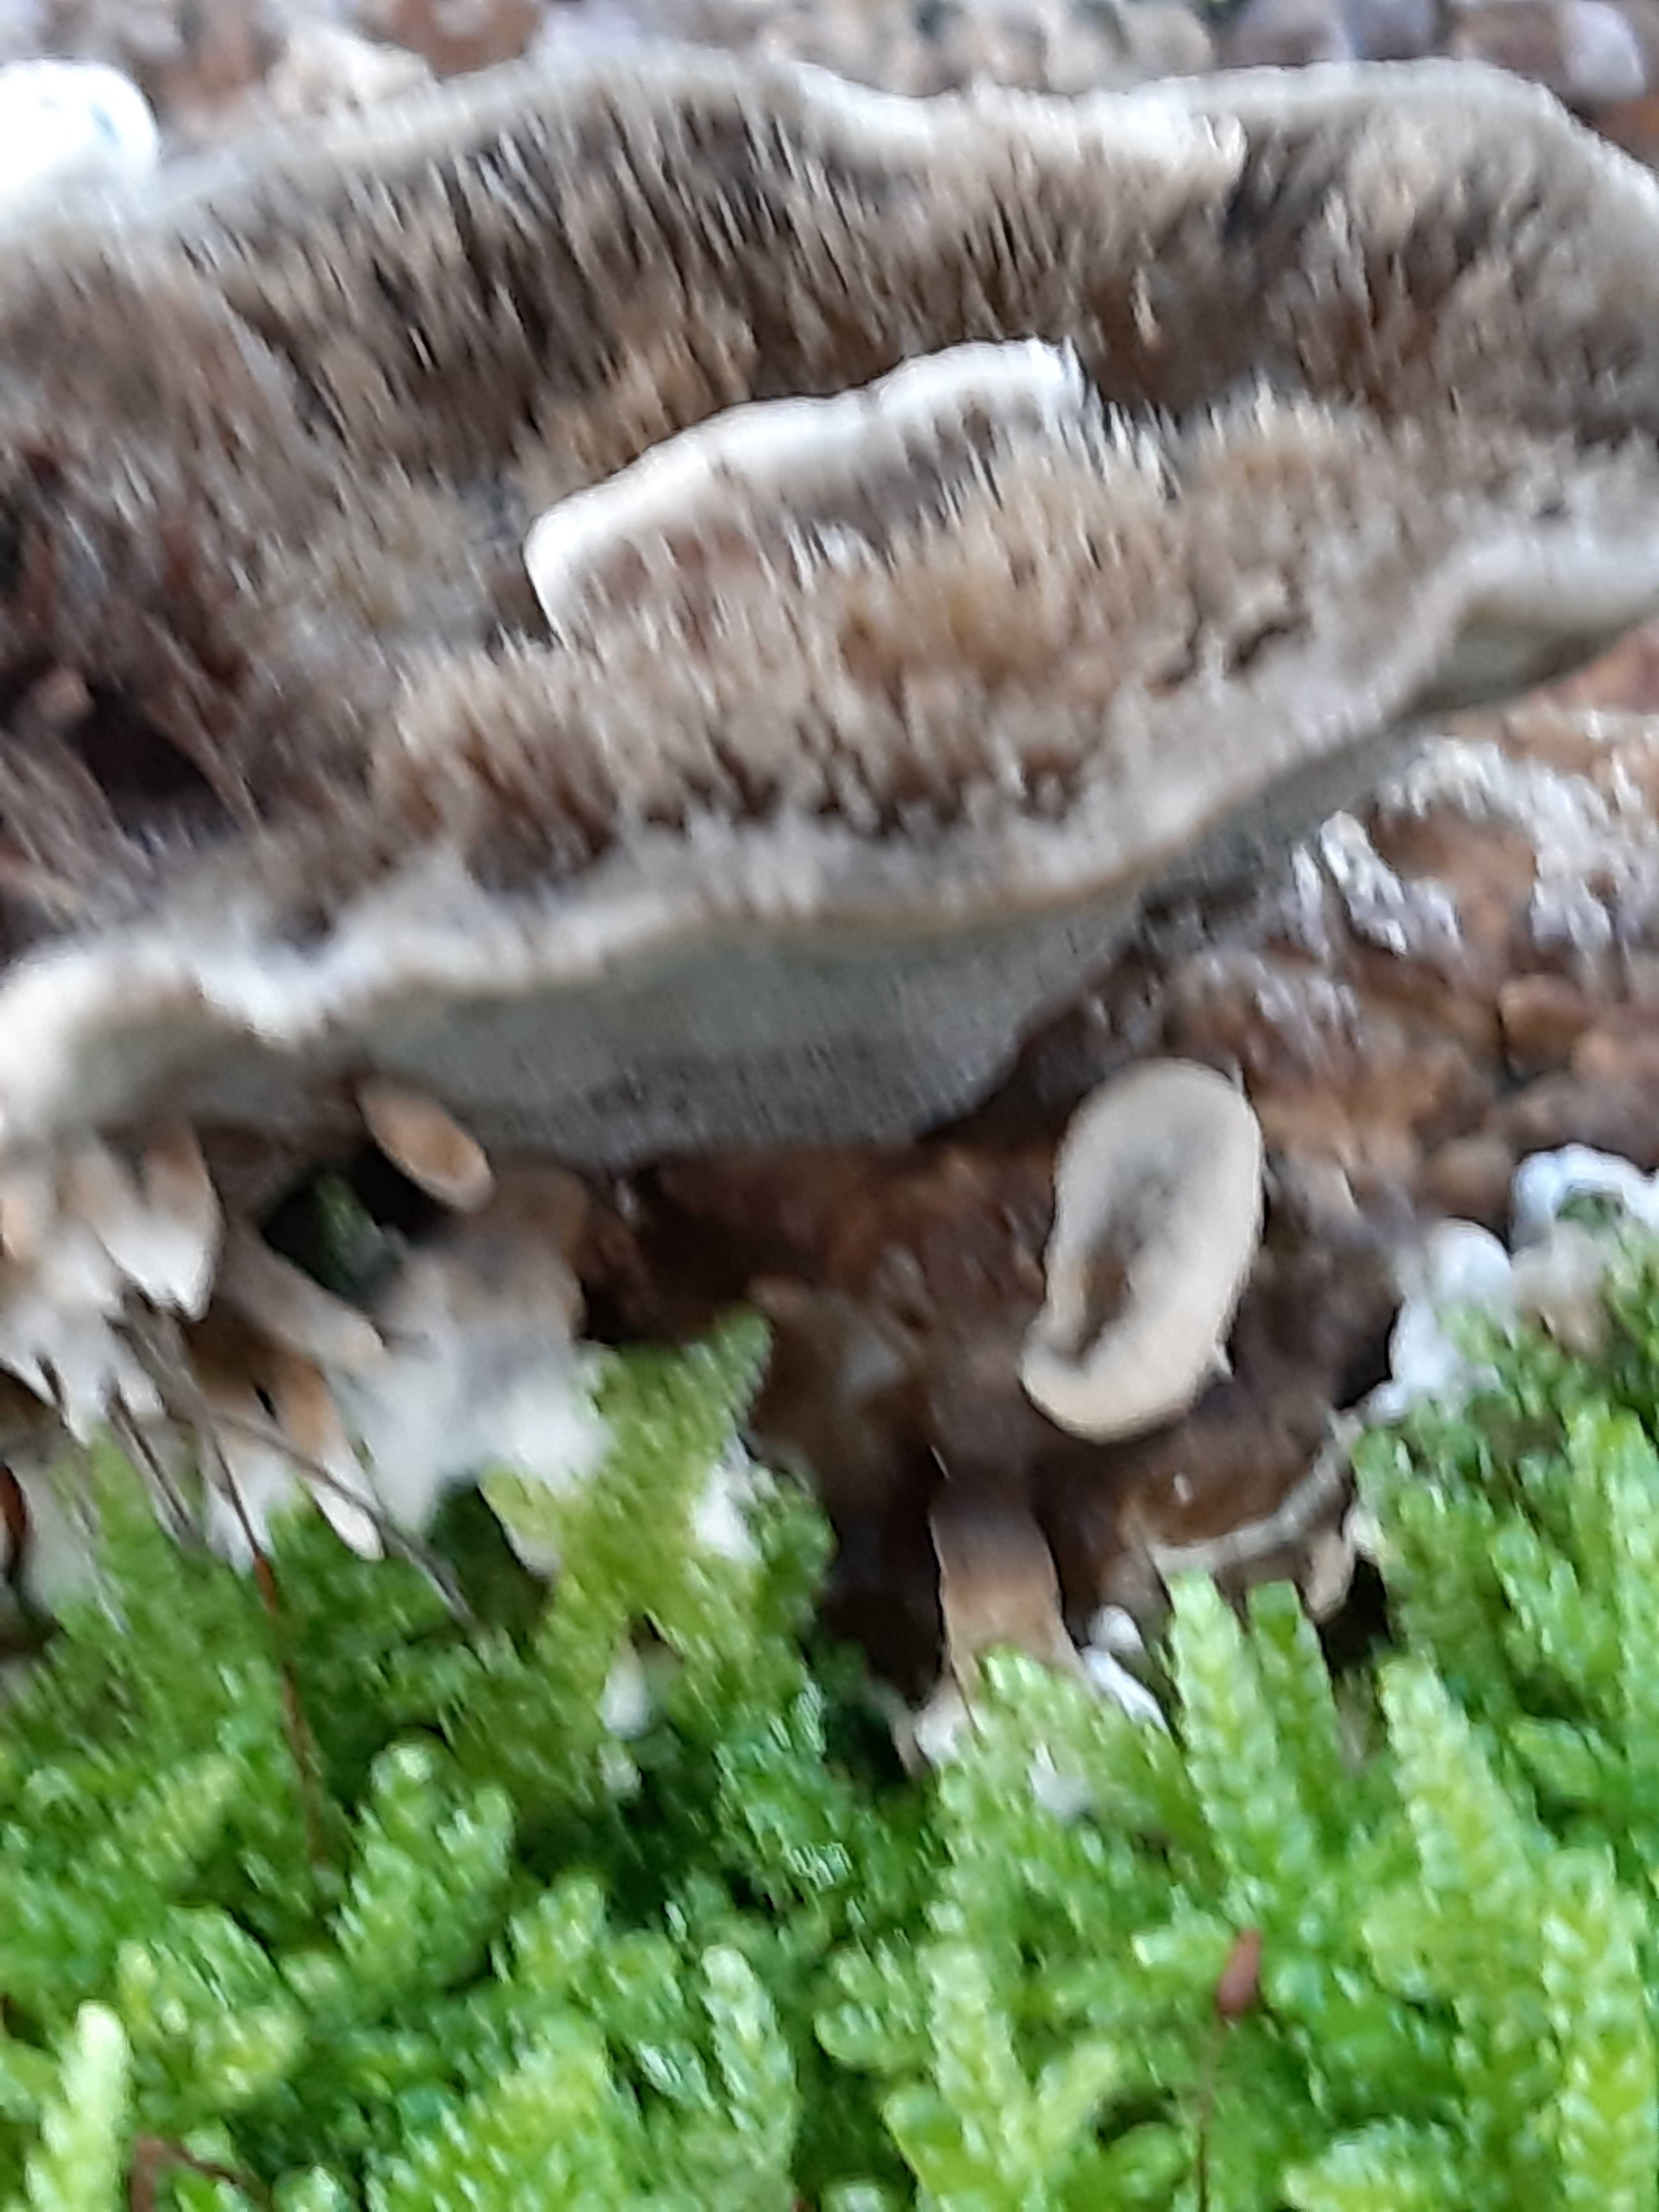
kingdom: Fungi
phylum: Basidiomycota
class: Agaricomycetes
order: Polyporales
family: Phanerochaetaceae
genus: Bjerkandera
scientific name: Bjerkandera adusta
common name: sveden sodporesvamp
